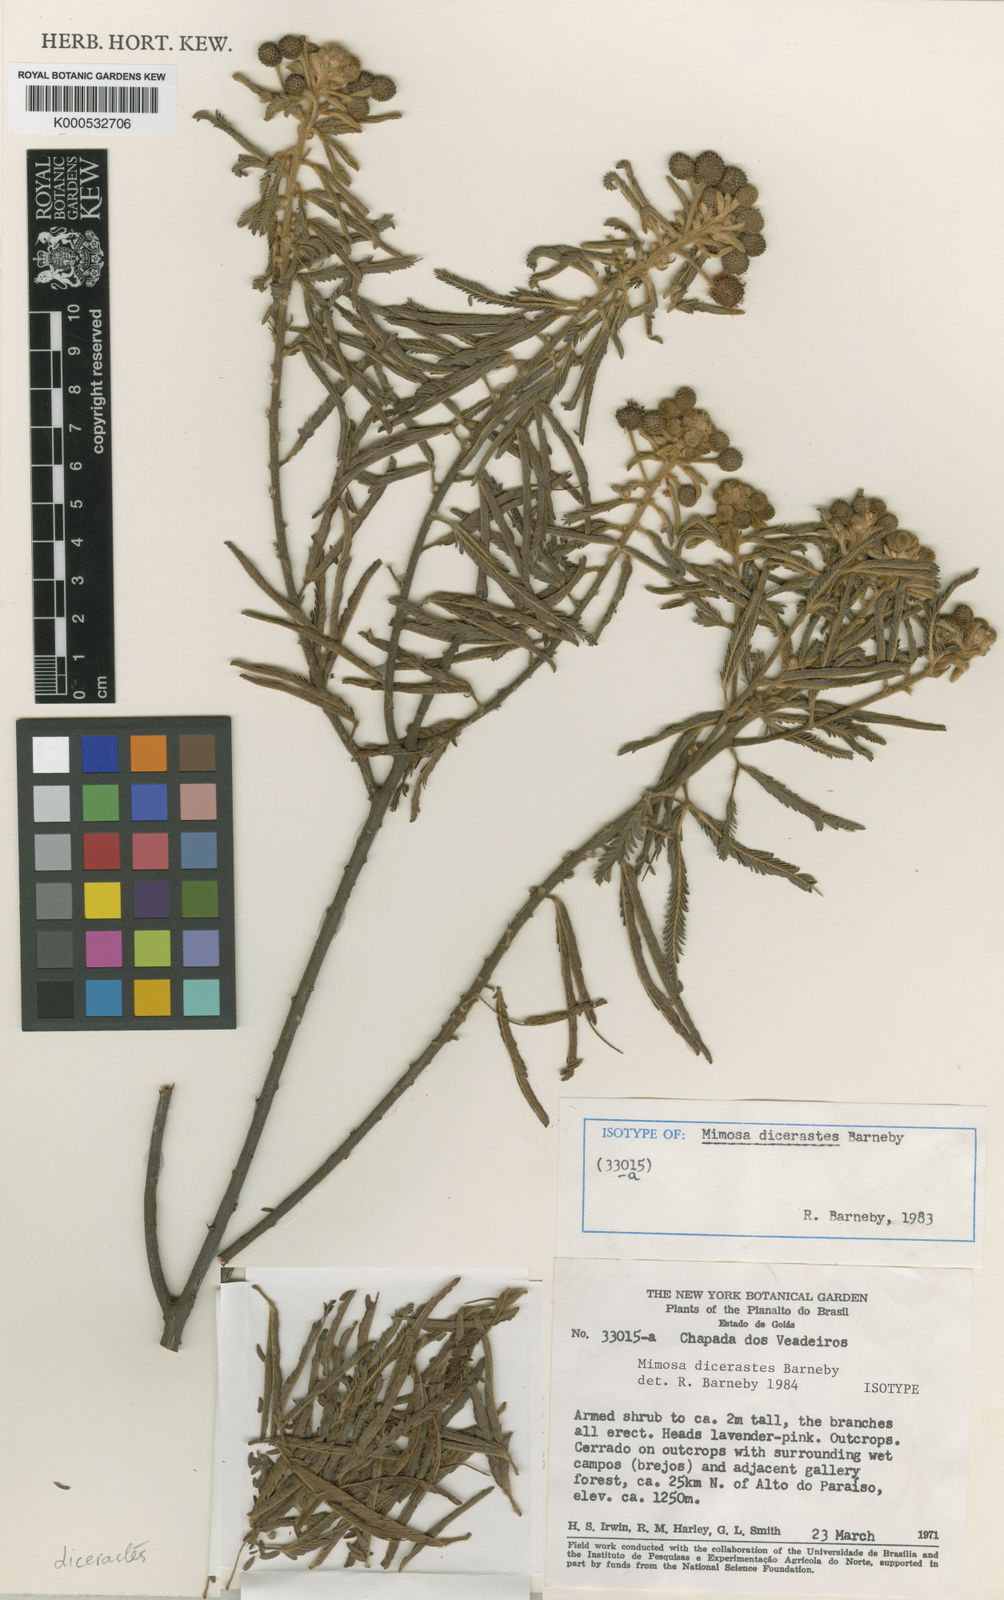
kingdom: Plantae
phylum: Tracheophyta
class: Magnoliopsida
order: Fabales
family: Fabaceae
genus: Mimosa
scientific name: Mimosa dicerastes
